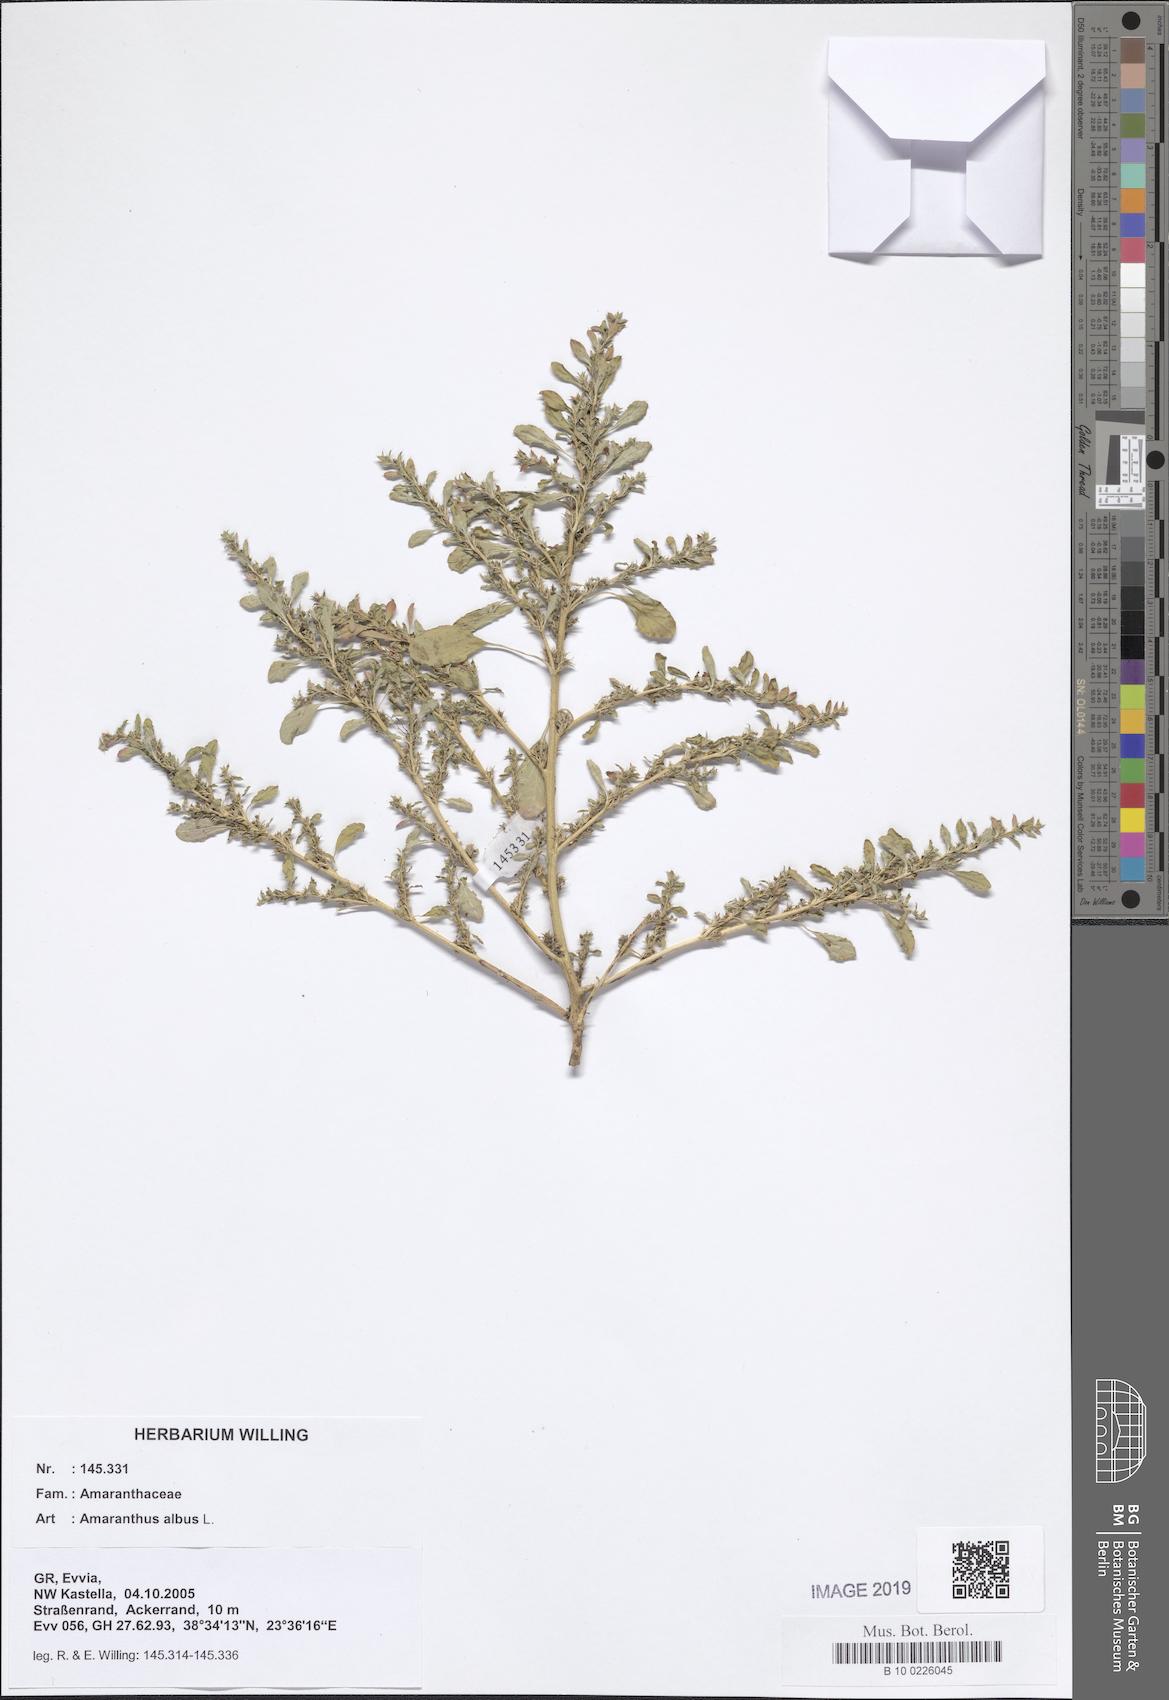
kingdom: Plantae
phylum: Tracheophyta
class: Magnoliopsida
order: Caryophyllales
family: Amaranthaceae
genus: Amaranthus
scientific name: Amaranthus albus
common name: White pigweed
